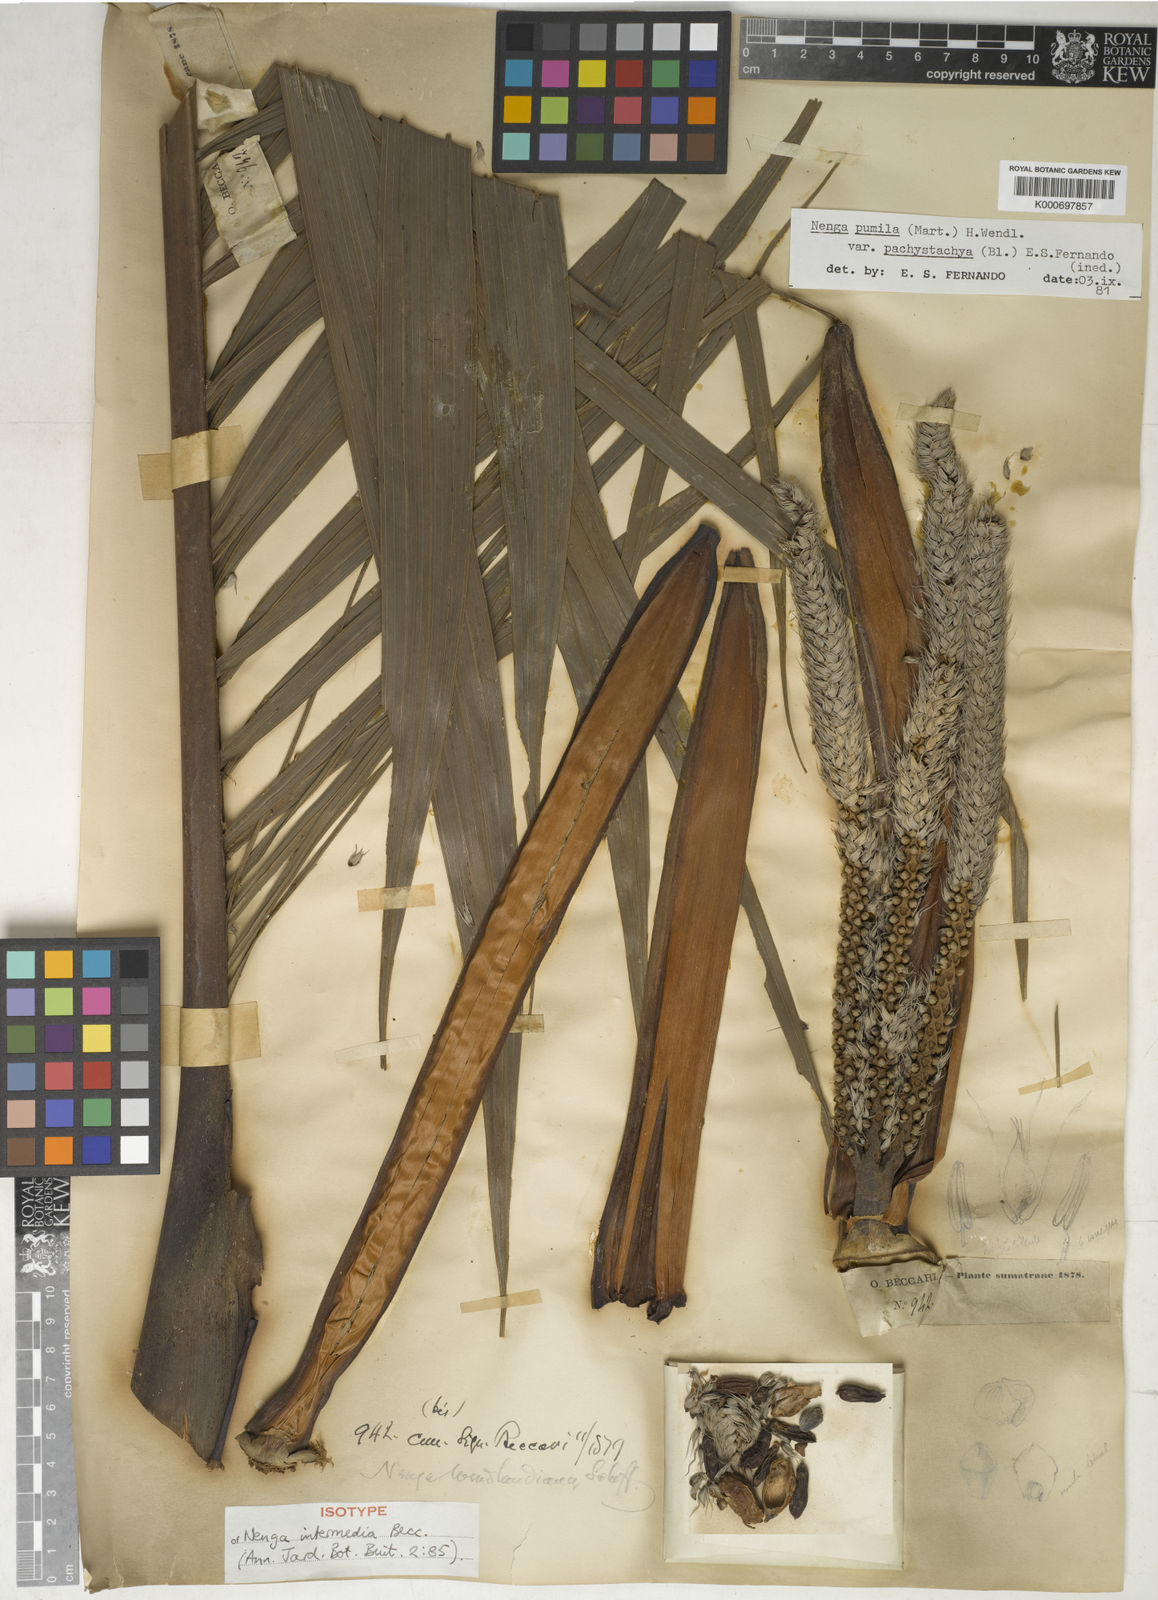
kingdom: Plantae
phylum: Tracheophyta
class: Liliopsida
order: Arecales
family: Arecaceae
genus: Nenga
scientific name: Nenga pumila
